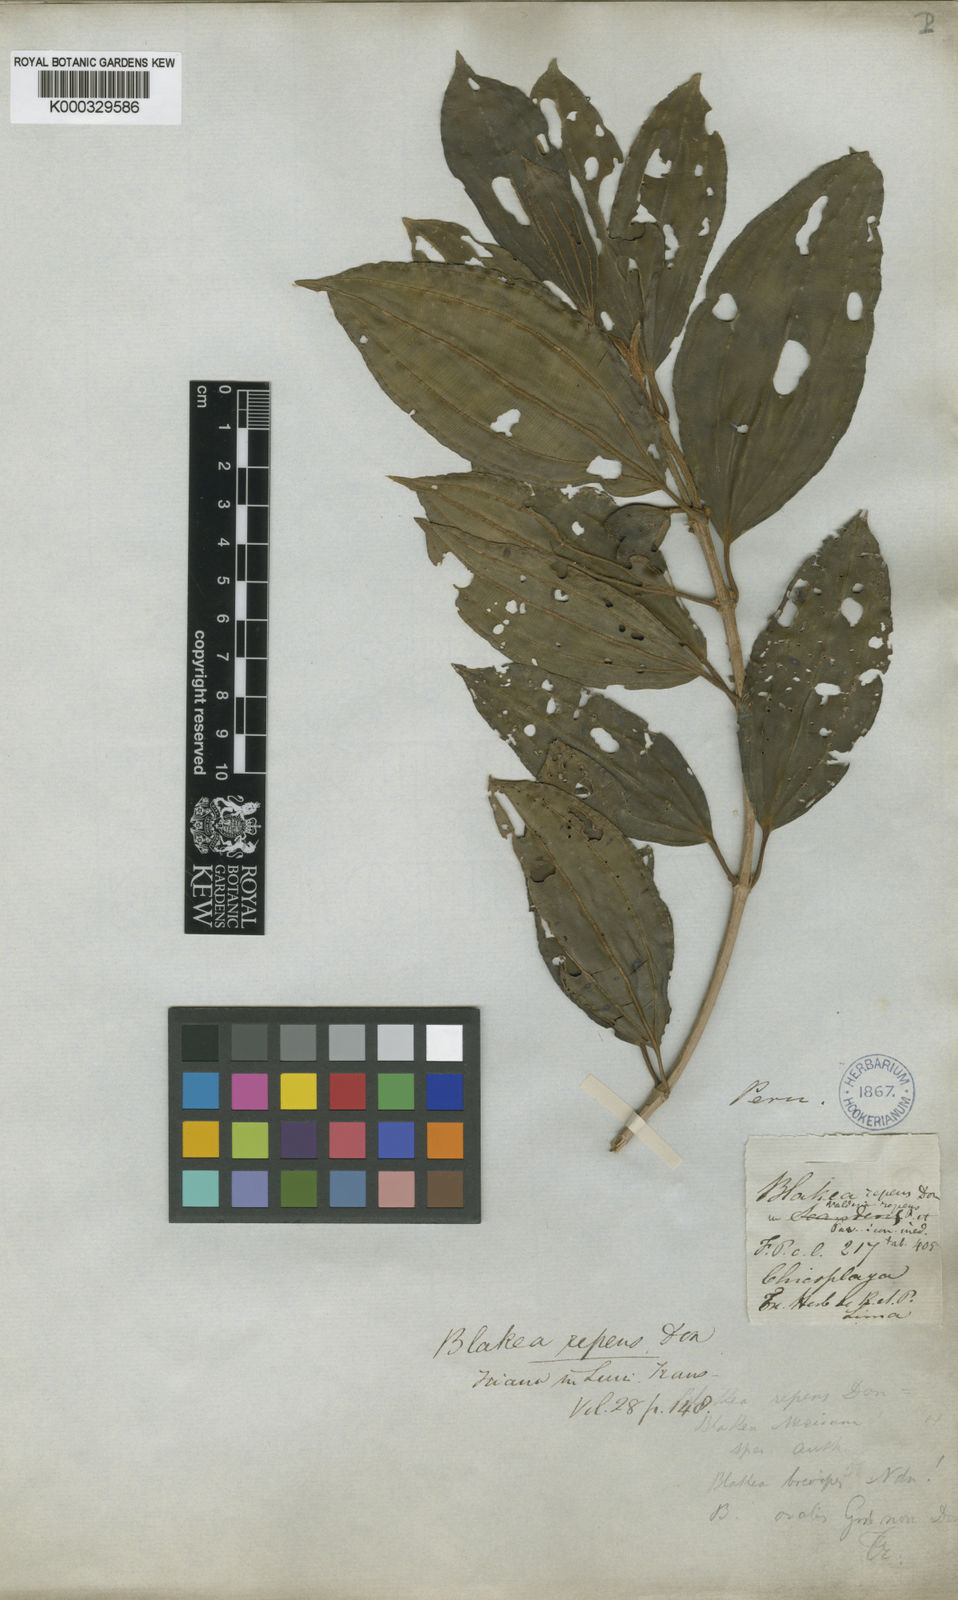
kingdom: Plantae
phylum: Tracheophyta
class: Magnoliopsida
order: Myrtales
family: Melastomataceae
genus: Blakea
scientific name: Blakea repens
